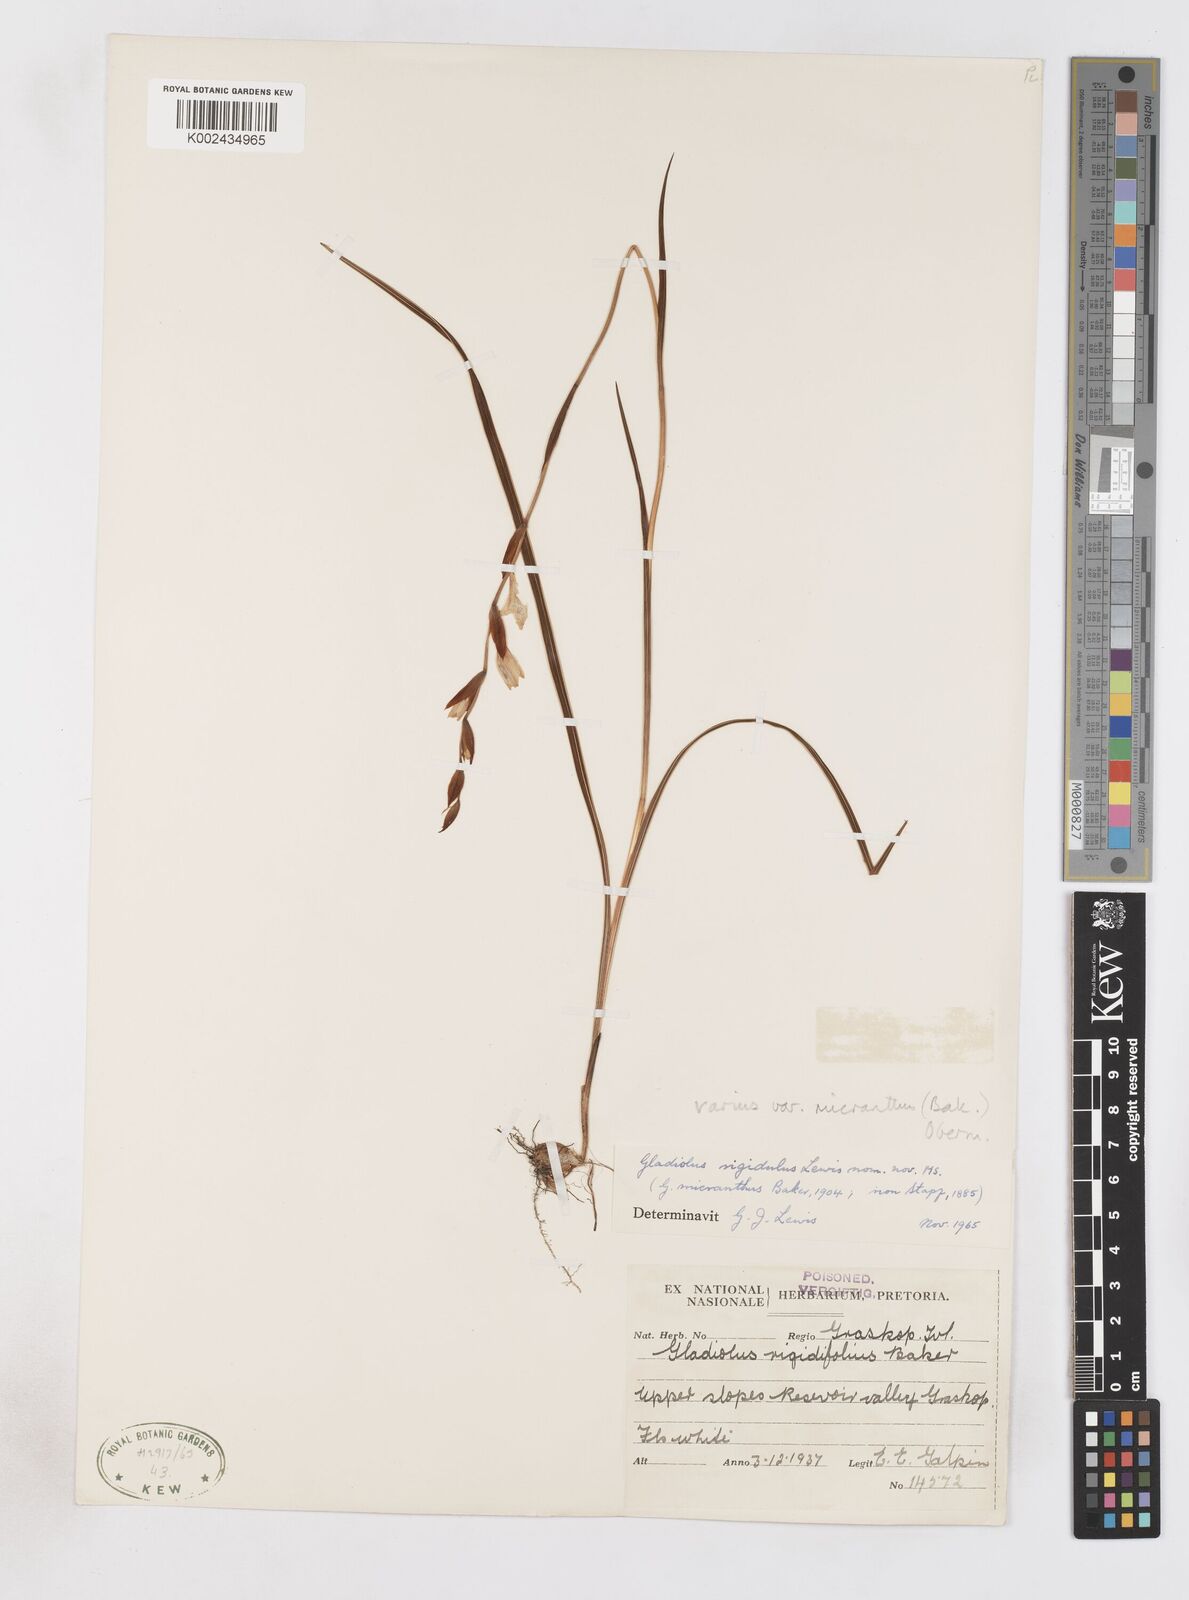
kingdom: Plantae
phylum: Tracheophyta
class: Liliopsida
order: Asparagales
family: Iridaceae
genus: Gladiolus
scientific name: Gladiolus ferrugineus
